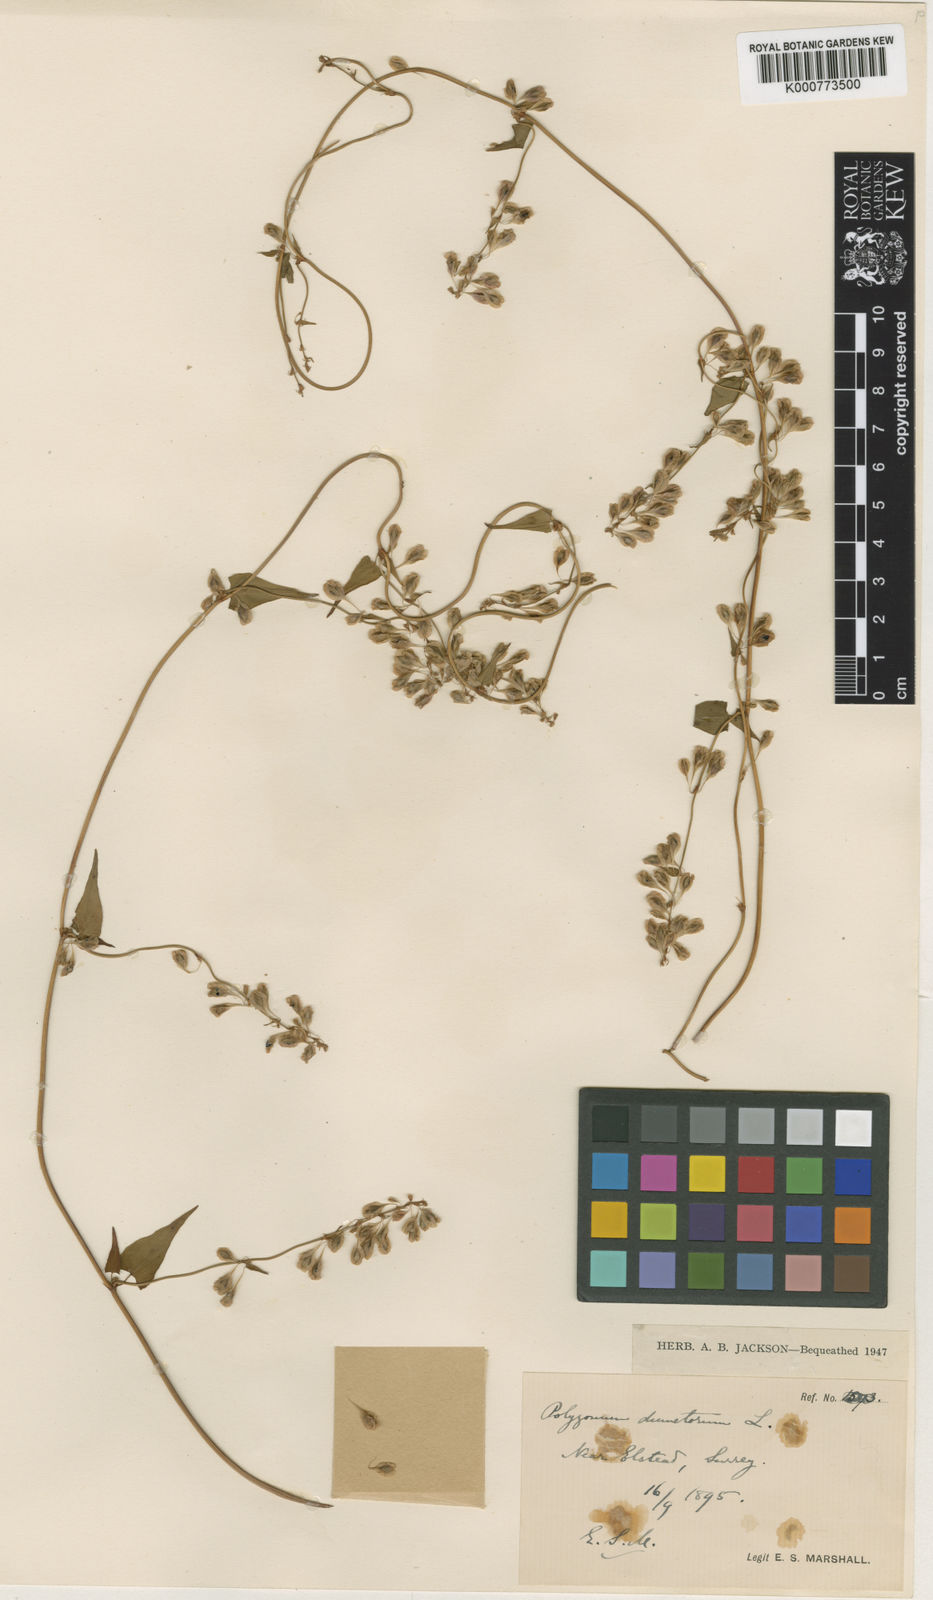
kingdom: Plantae
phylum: Tracheophyta
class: Magnoliopsida
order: Caryophyllales
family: Polygonaceae
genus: Fallopia
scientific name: Fallopia dumetorum
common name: Copse-bindweed
